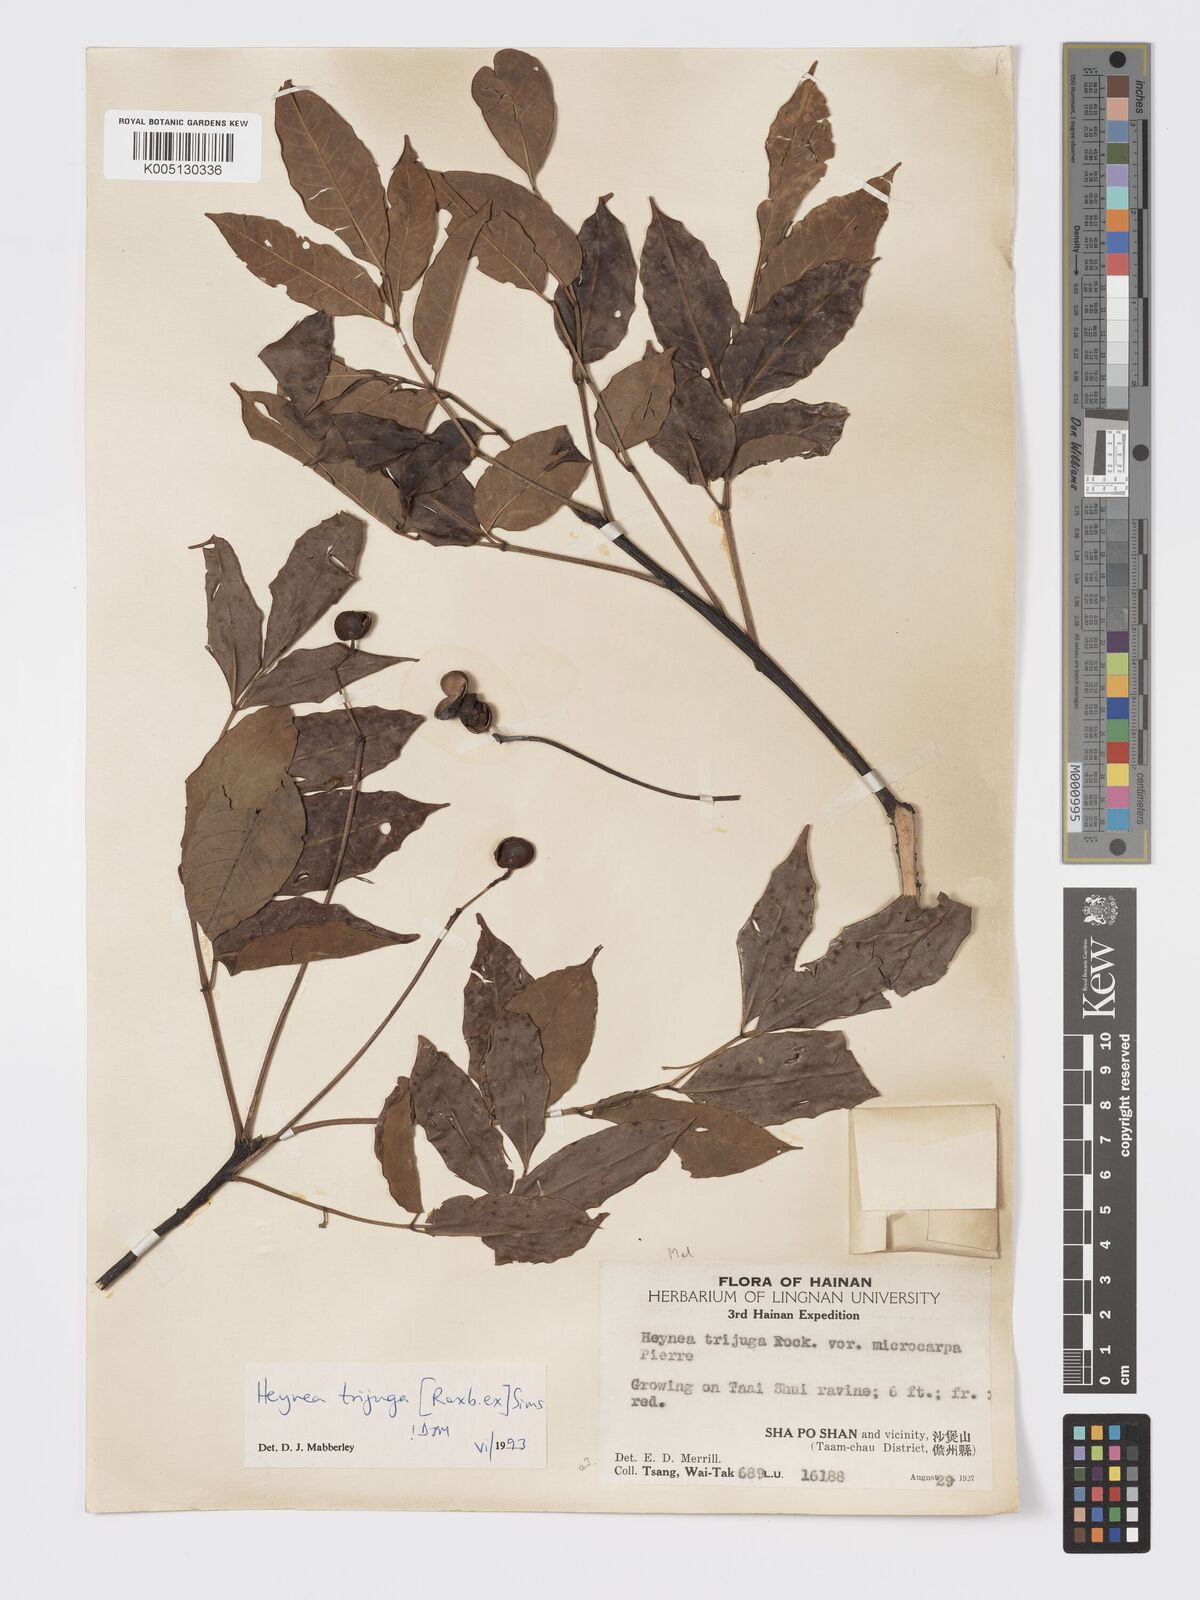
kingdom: Plantae
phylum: Tracheophyta
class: Magnoliopsida
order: Sapindales
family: Meliaceae
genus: Heynea
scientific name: Heynea trijuga
